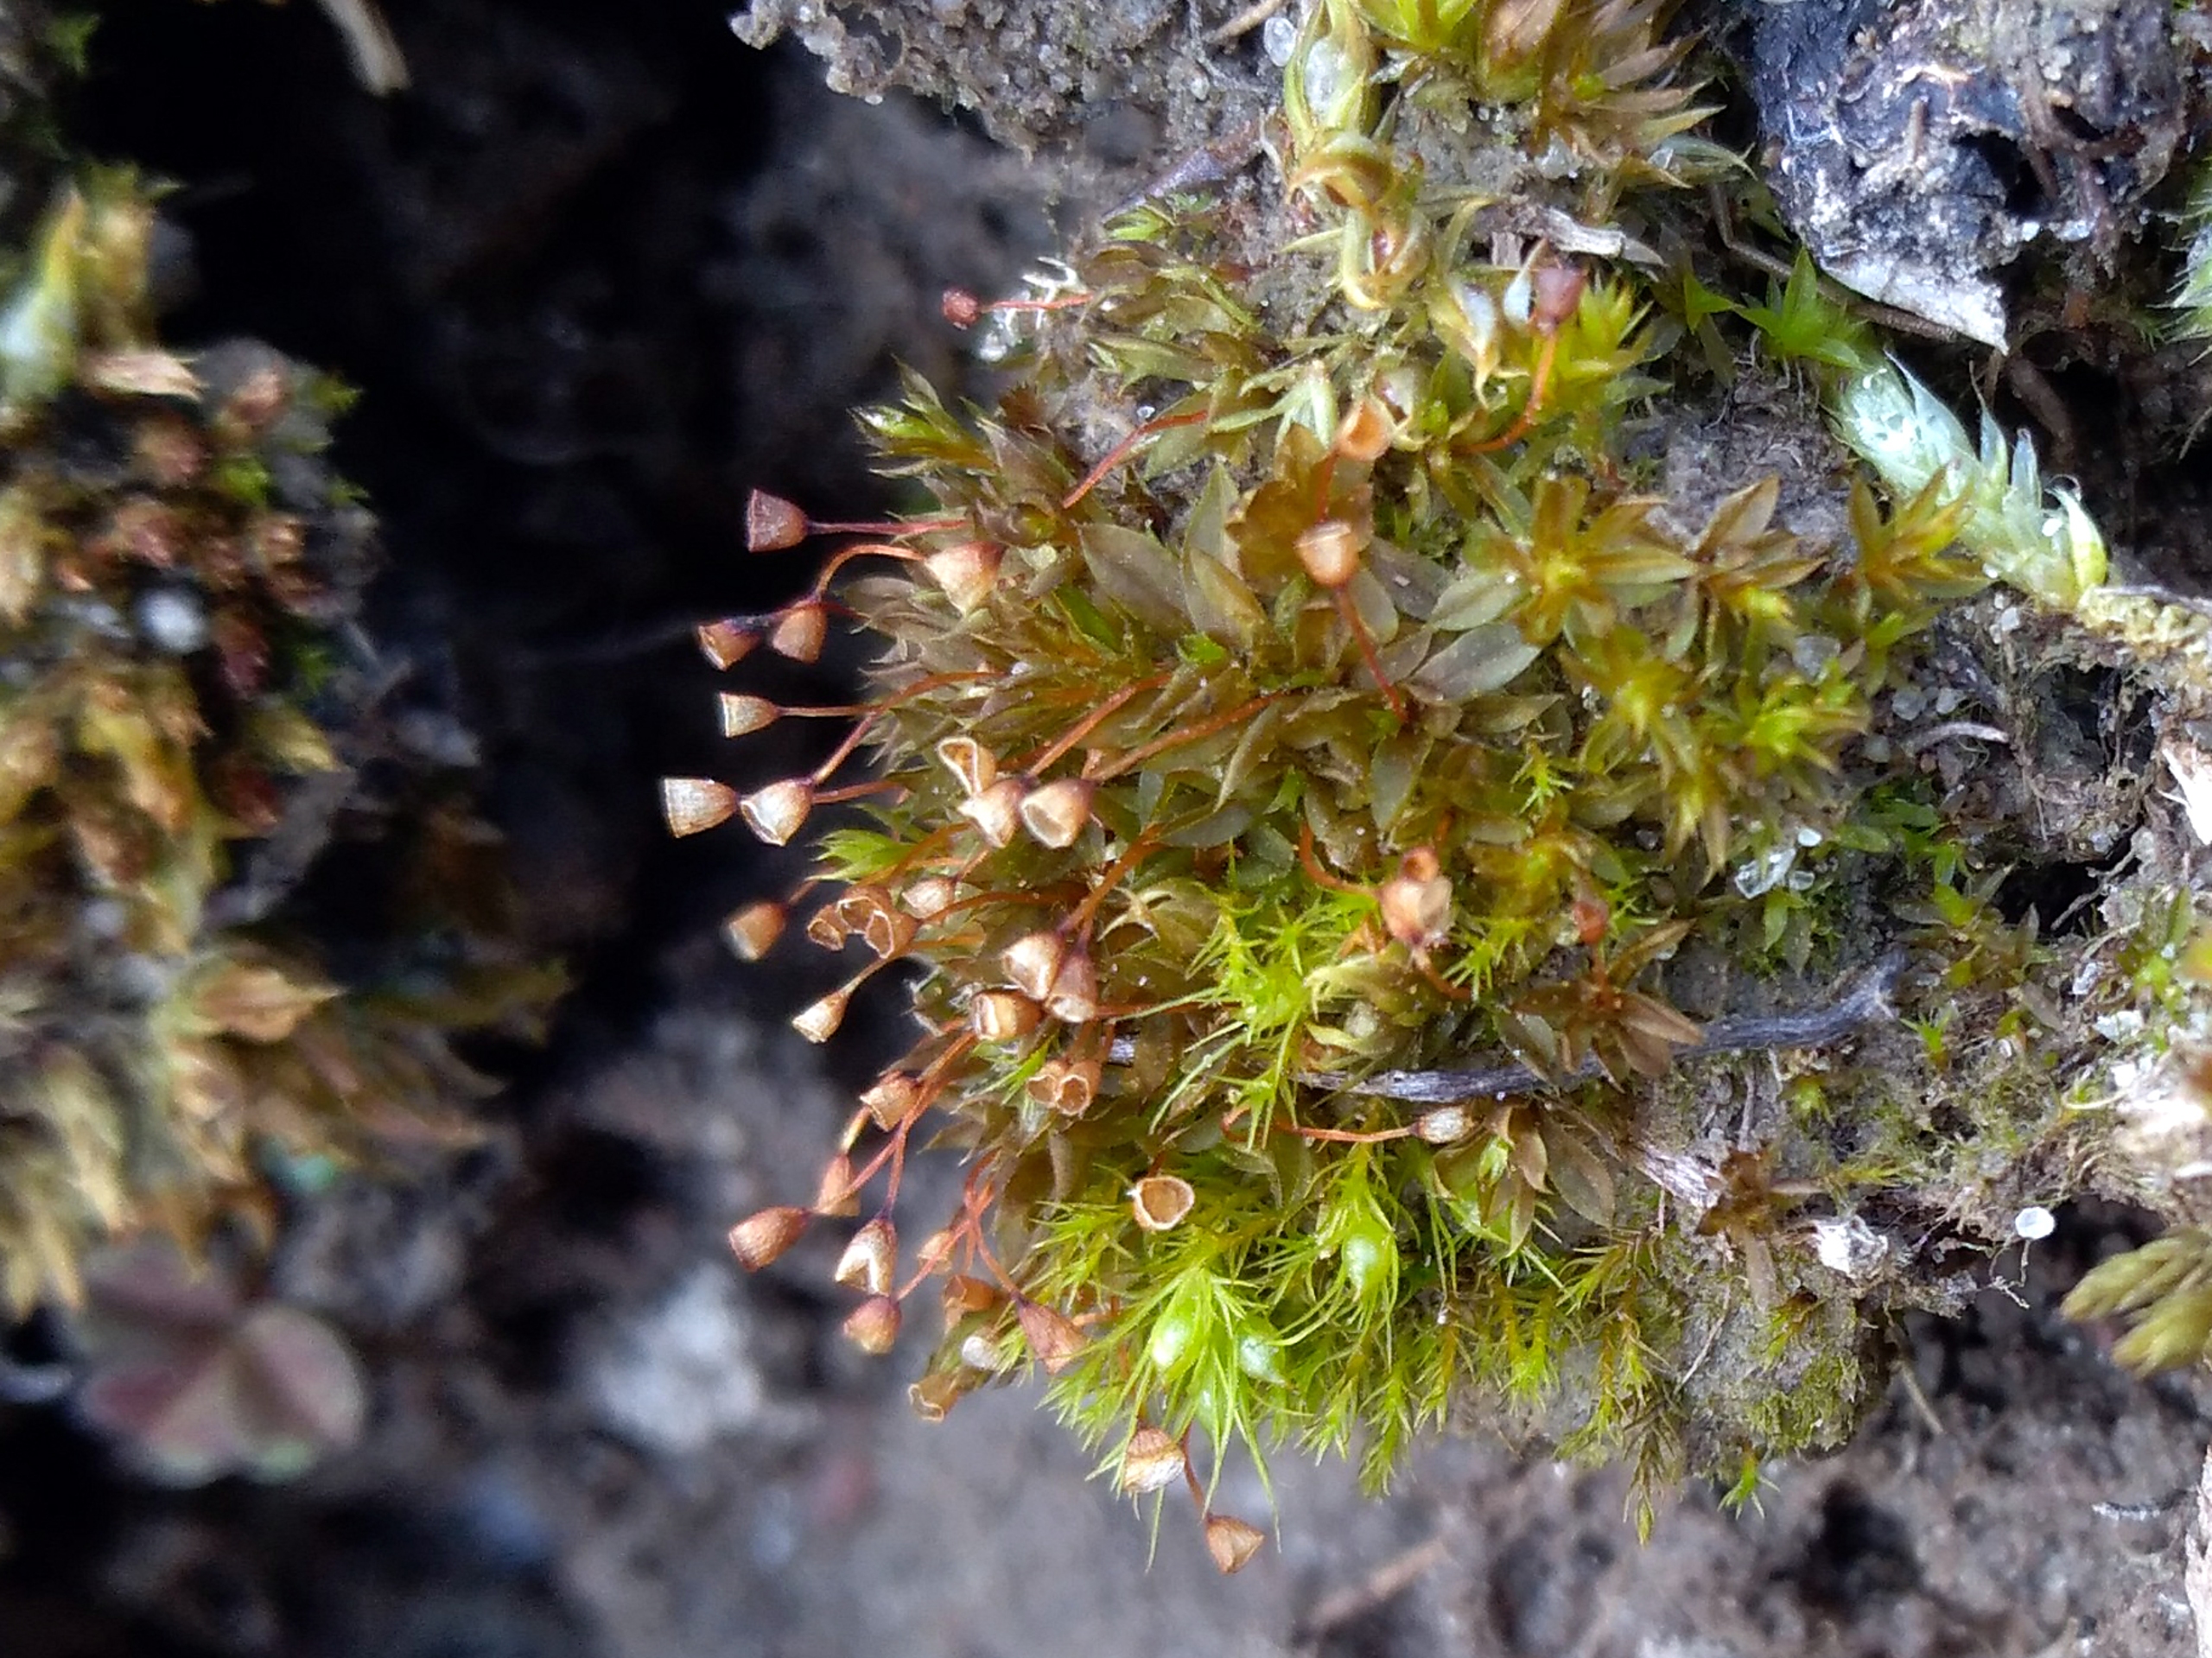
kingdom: Plantae
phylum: Bryophyta
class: Bryopsida
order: Pottiales
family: Pottiaceae
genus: Tortula
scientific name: Tortula truncata
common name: Vidmundet bægermos
